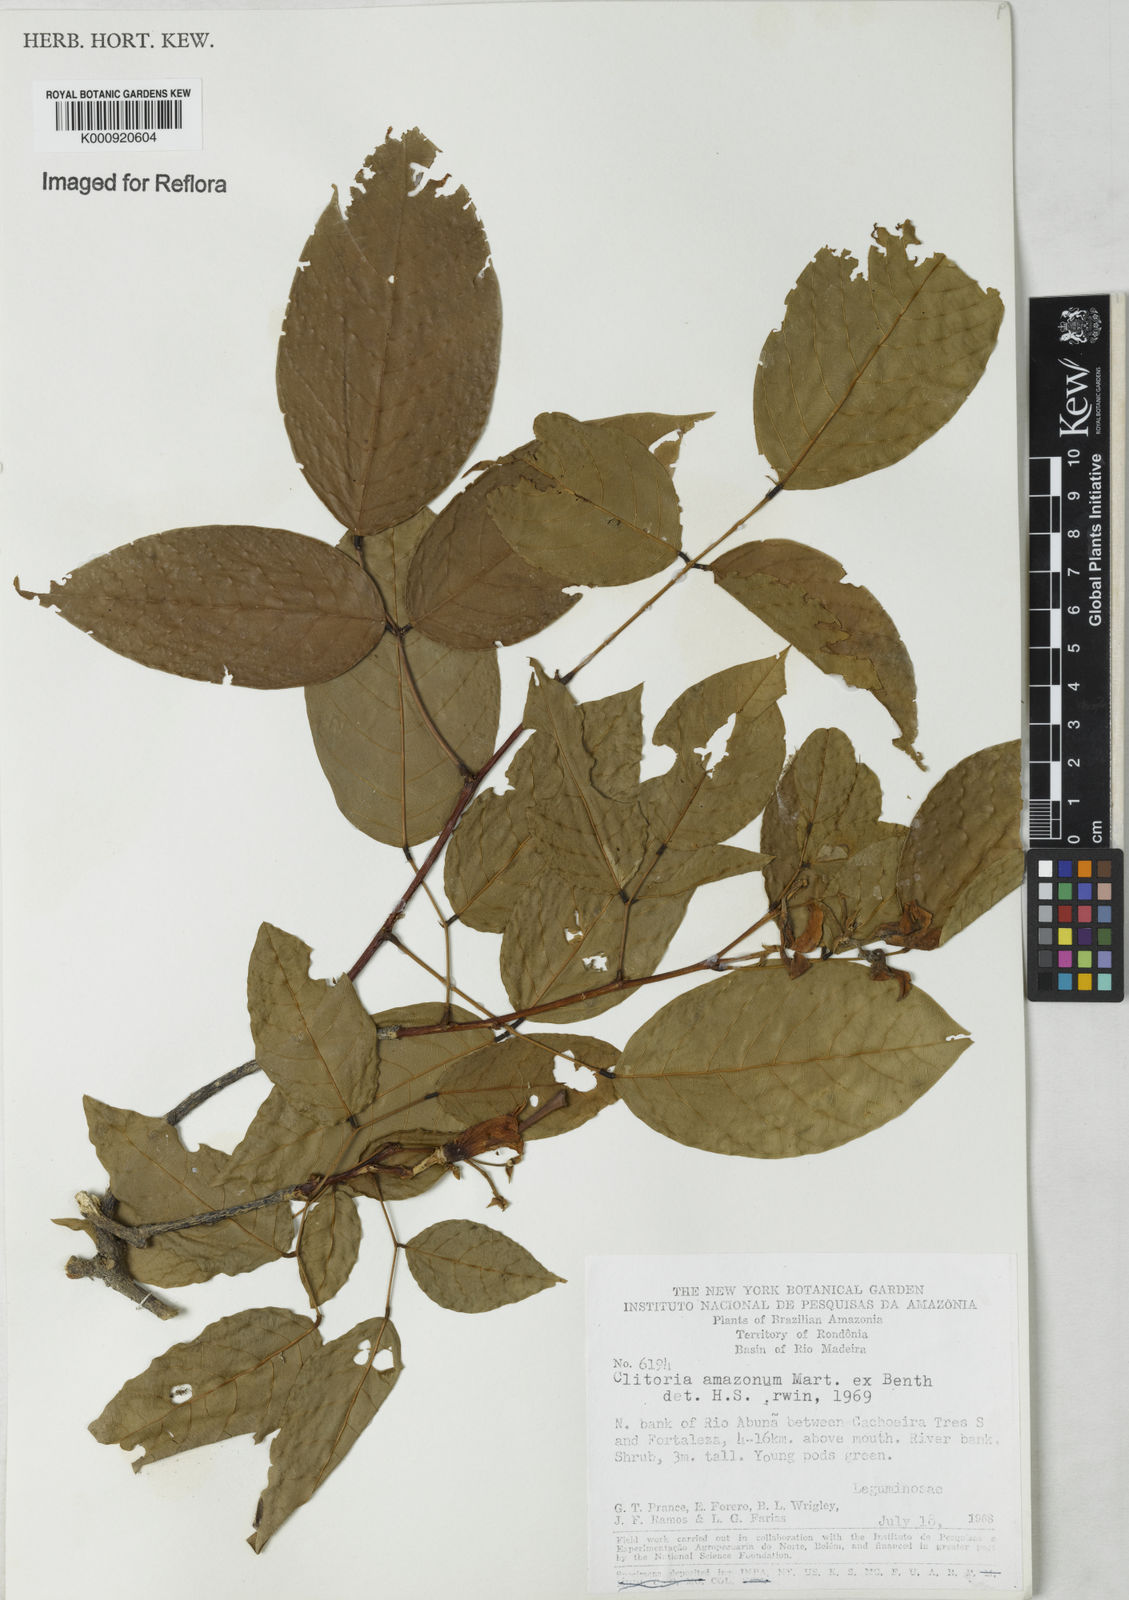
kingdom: Plantae
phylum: Tracheophyta
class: Magnoliopsida
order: Fabales
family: Fabaceae
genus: Clitoria
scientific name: Clitoria amazonum
